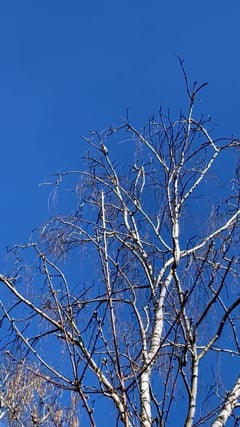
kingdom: Animalia
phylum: Chordata
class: Aves
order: Bucerotiformes
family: Upupidae
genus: Upupa
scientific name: Upupa epops
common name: Eurasian hoopoe
